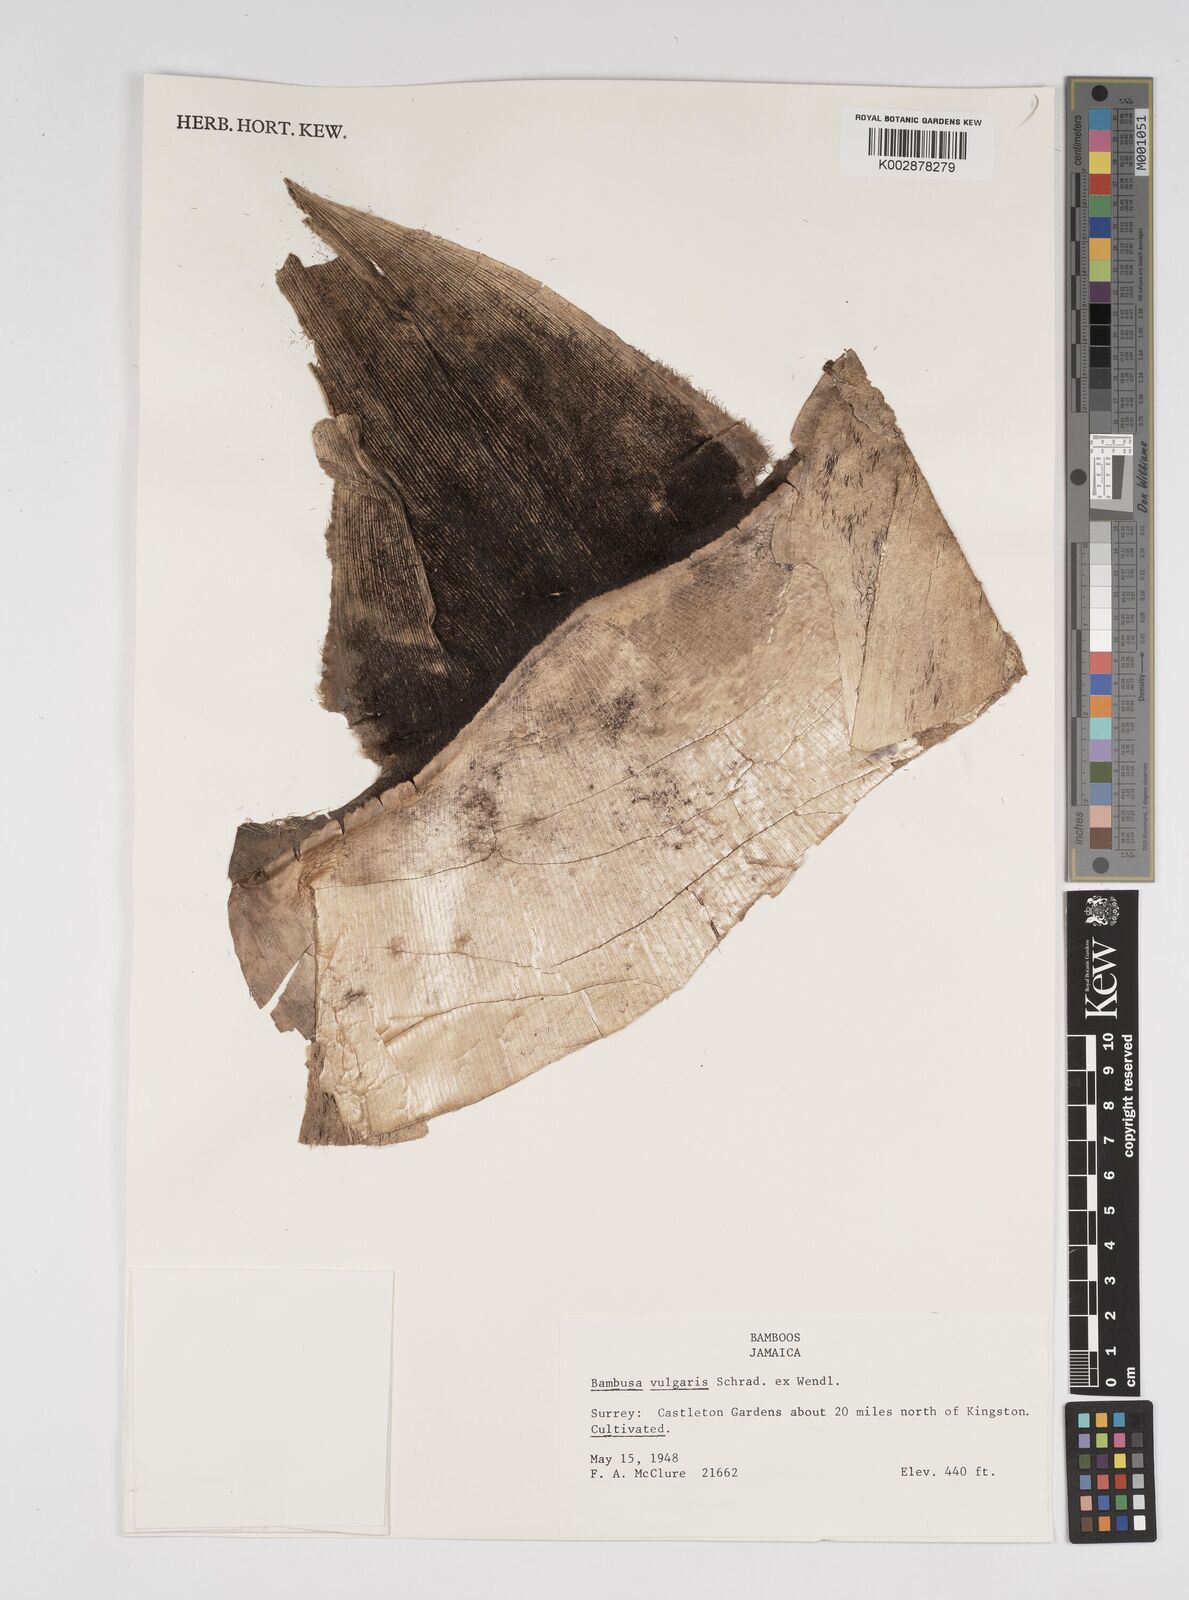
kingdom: Plantae
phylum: Tracheophyta
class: Liliopsida
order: Poales
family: Poaceae
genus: Bambusa
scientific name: Bambusa vulgaris
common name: Common bamboo
